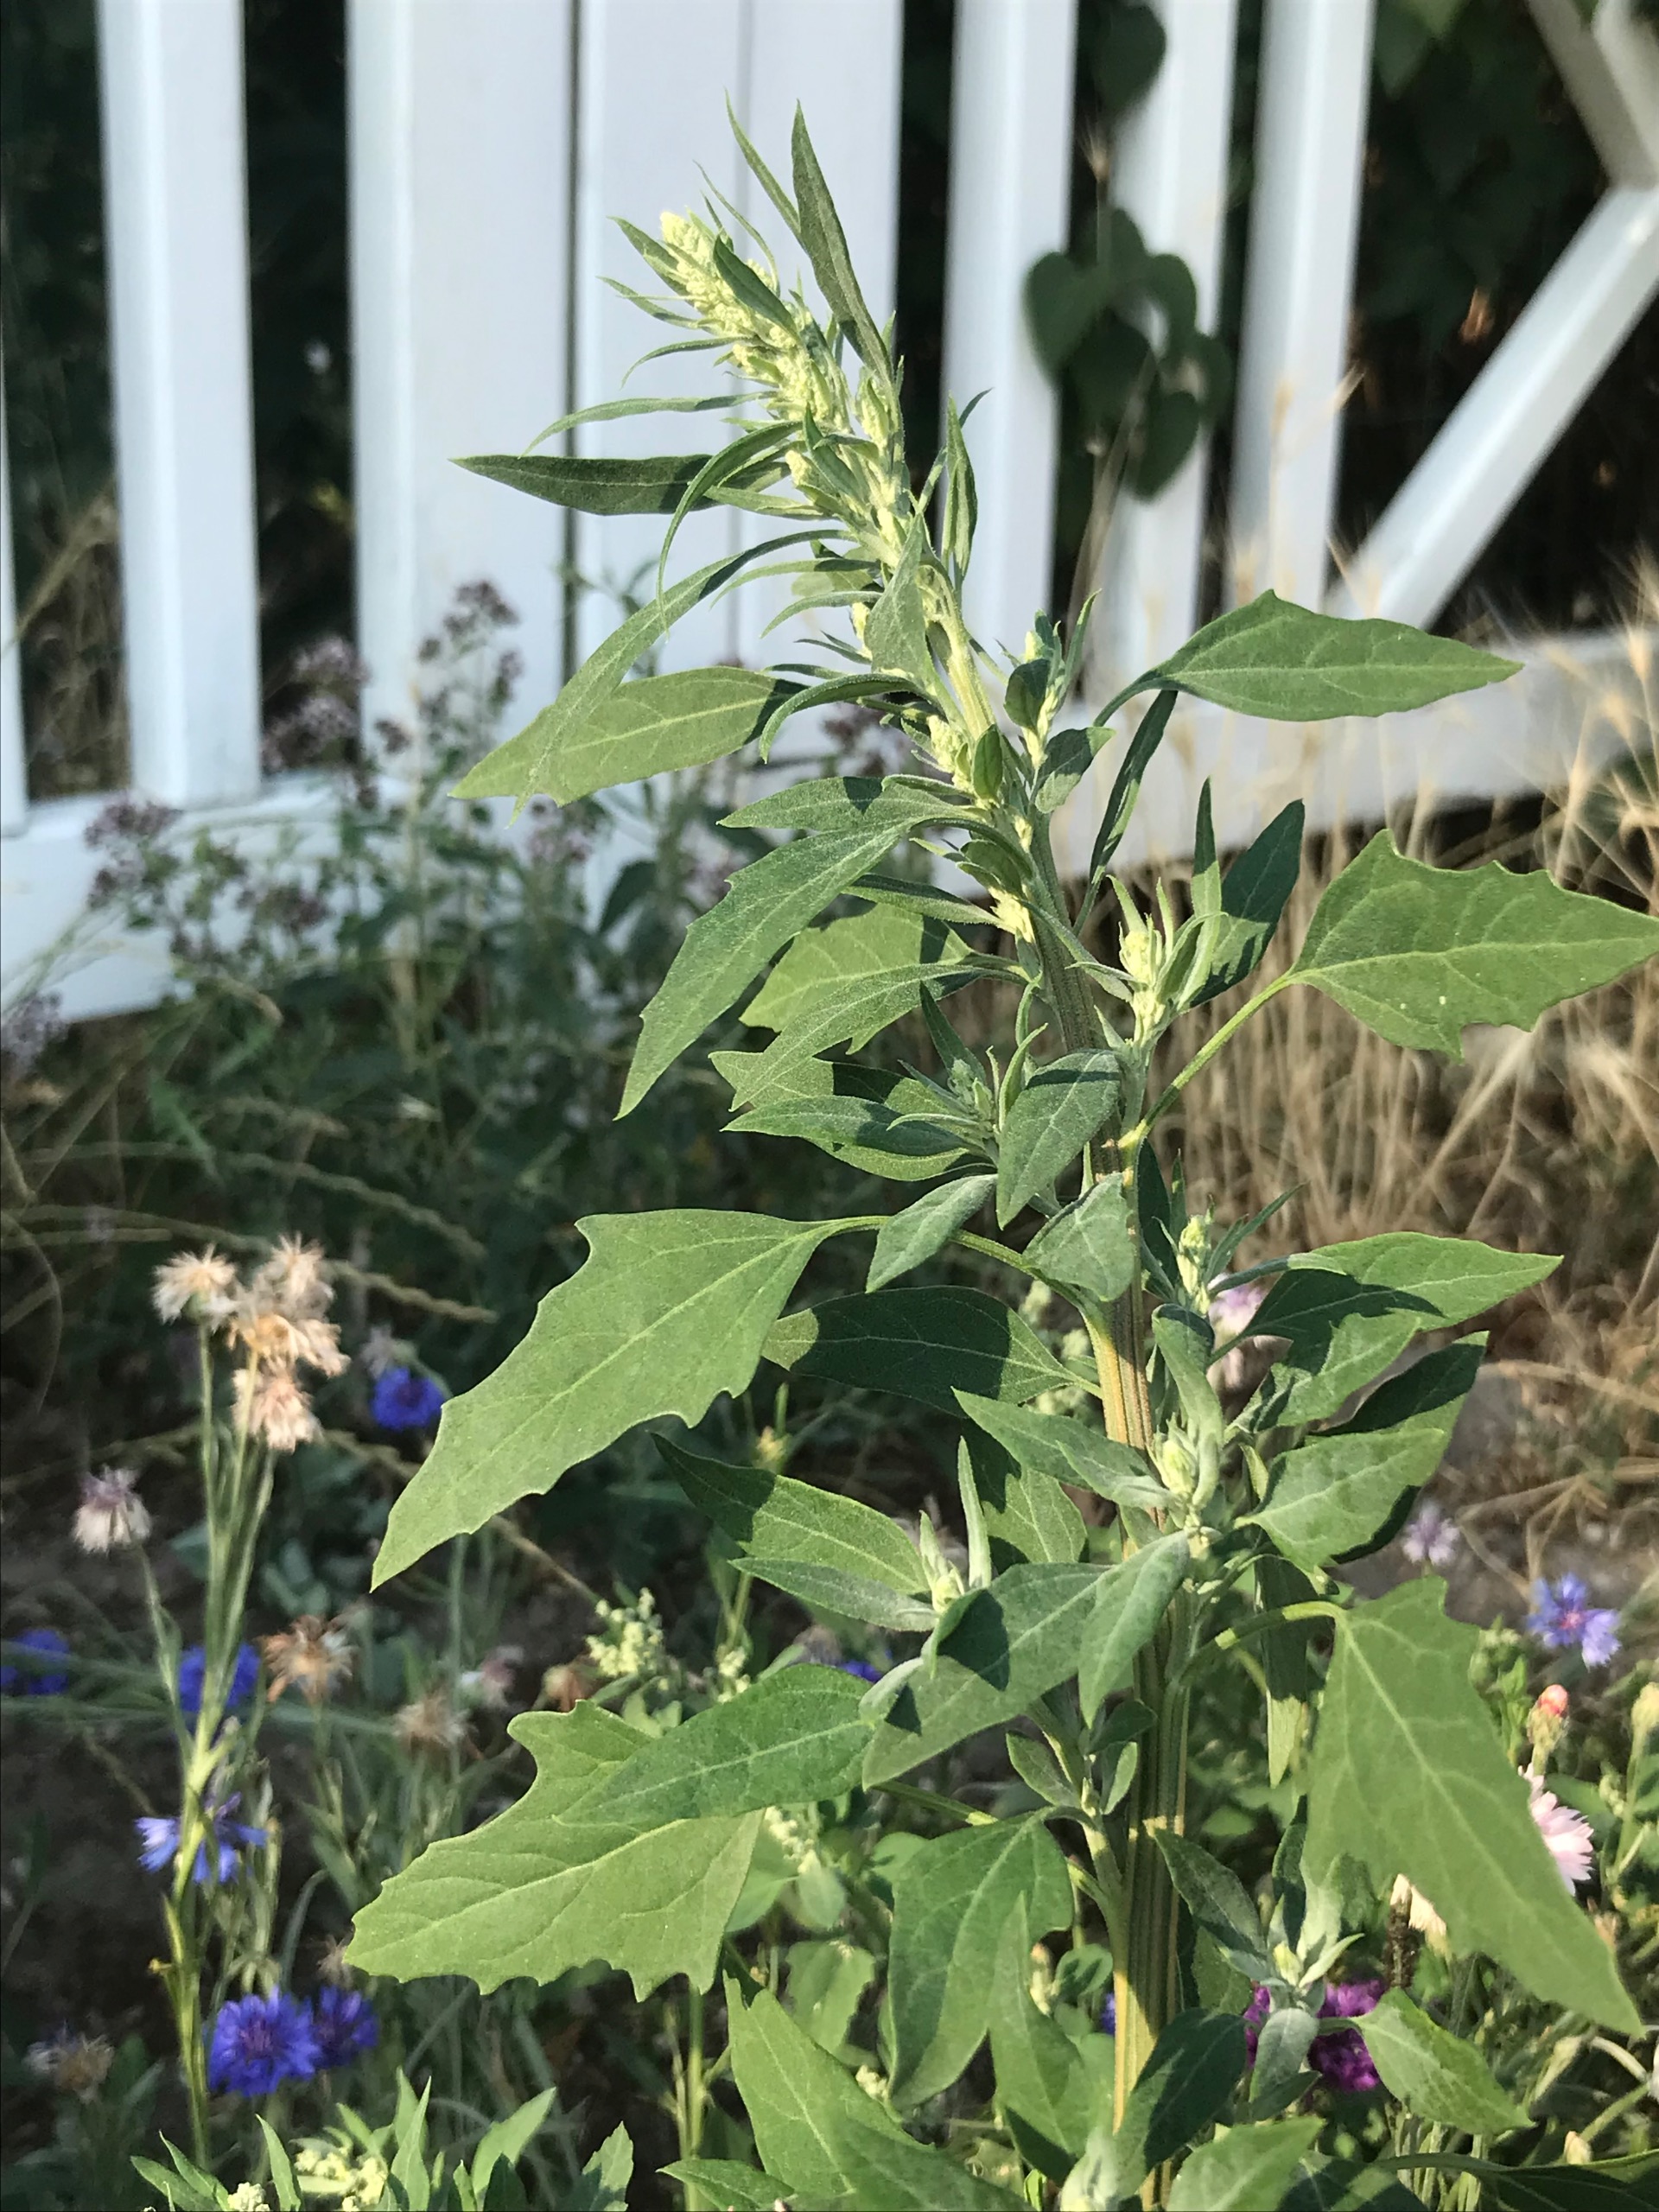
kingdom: Plantae
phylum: Tracheophyta
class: Magnoliopsida
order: Caryophyllales
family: Amaranthaceae
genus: Chenopodium
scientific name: Chenopodium album
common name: Hvidmelet gåsefod
